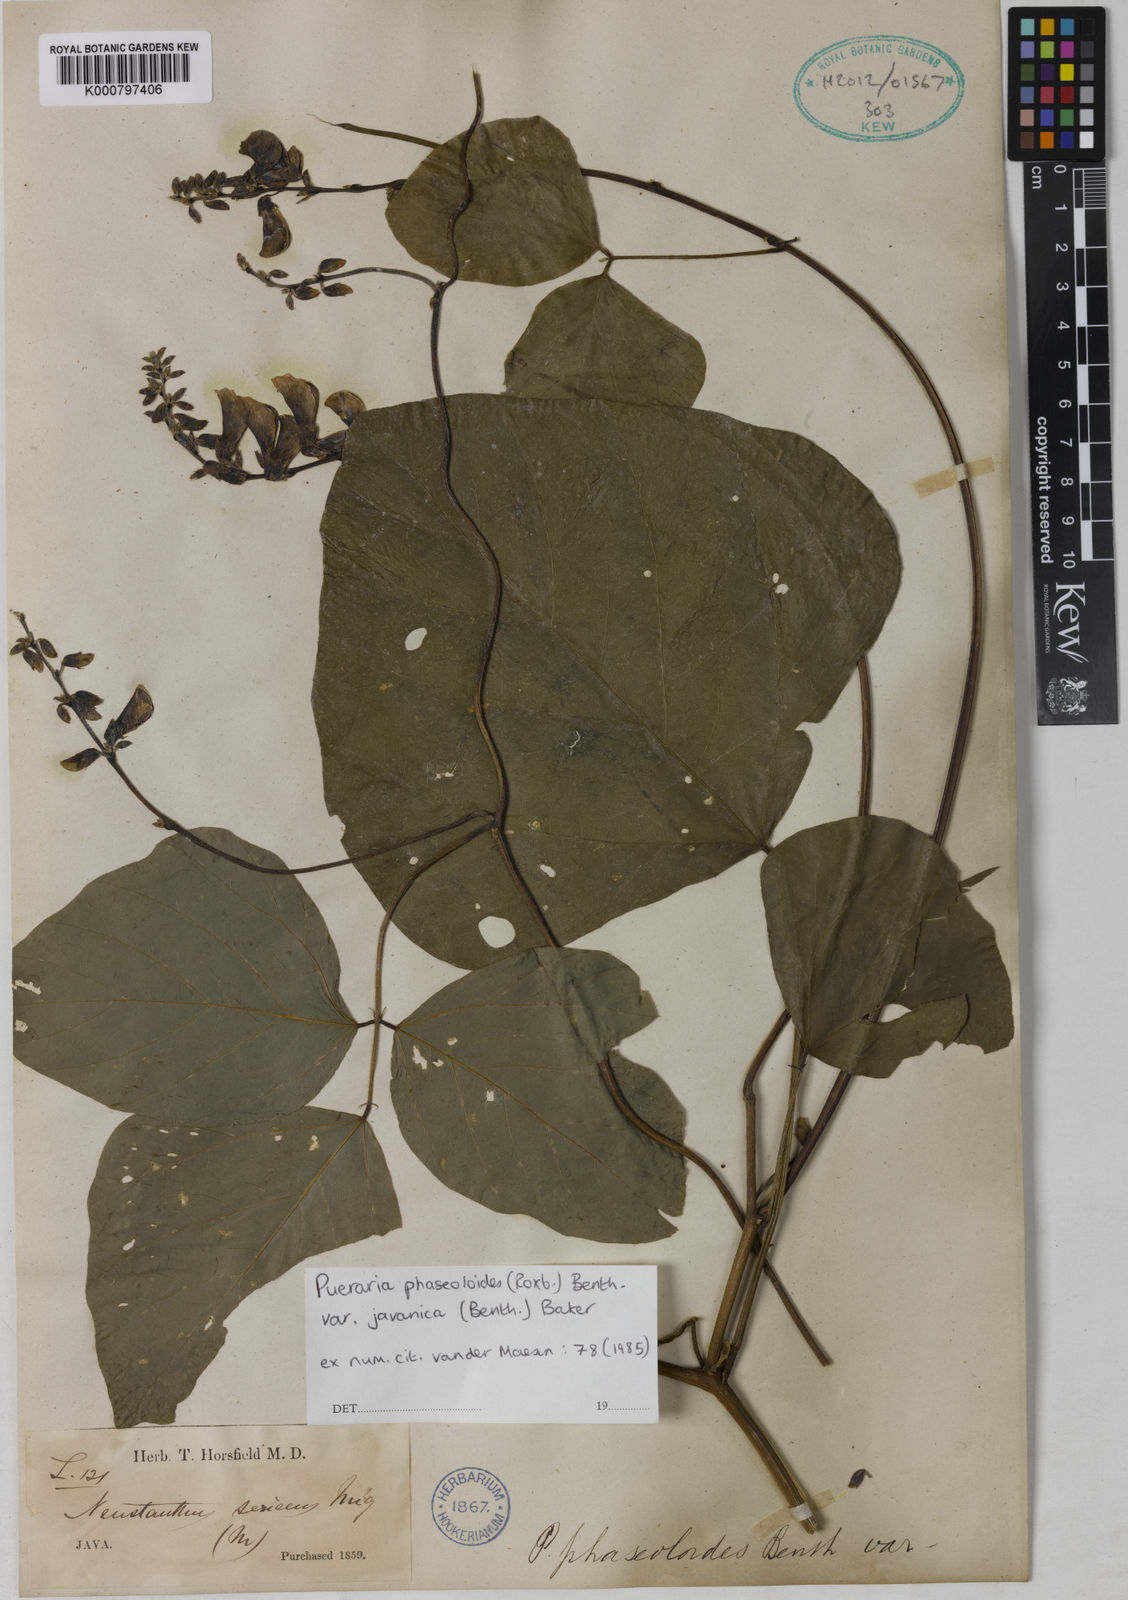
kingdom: Plantae
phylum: Tracheophyta
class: Magnoliopsida
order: Fabales
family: Fabaceae
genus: Neustanthus
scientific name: Neustanthus phaseoloides
